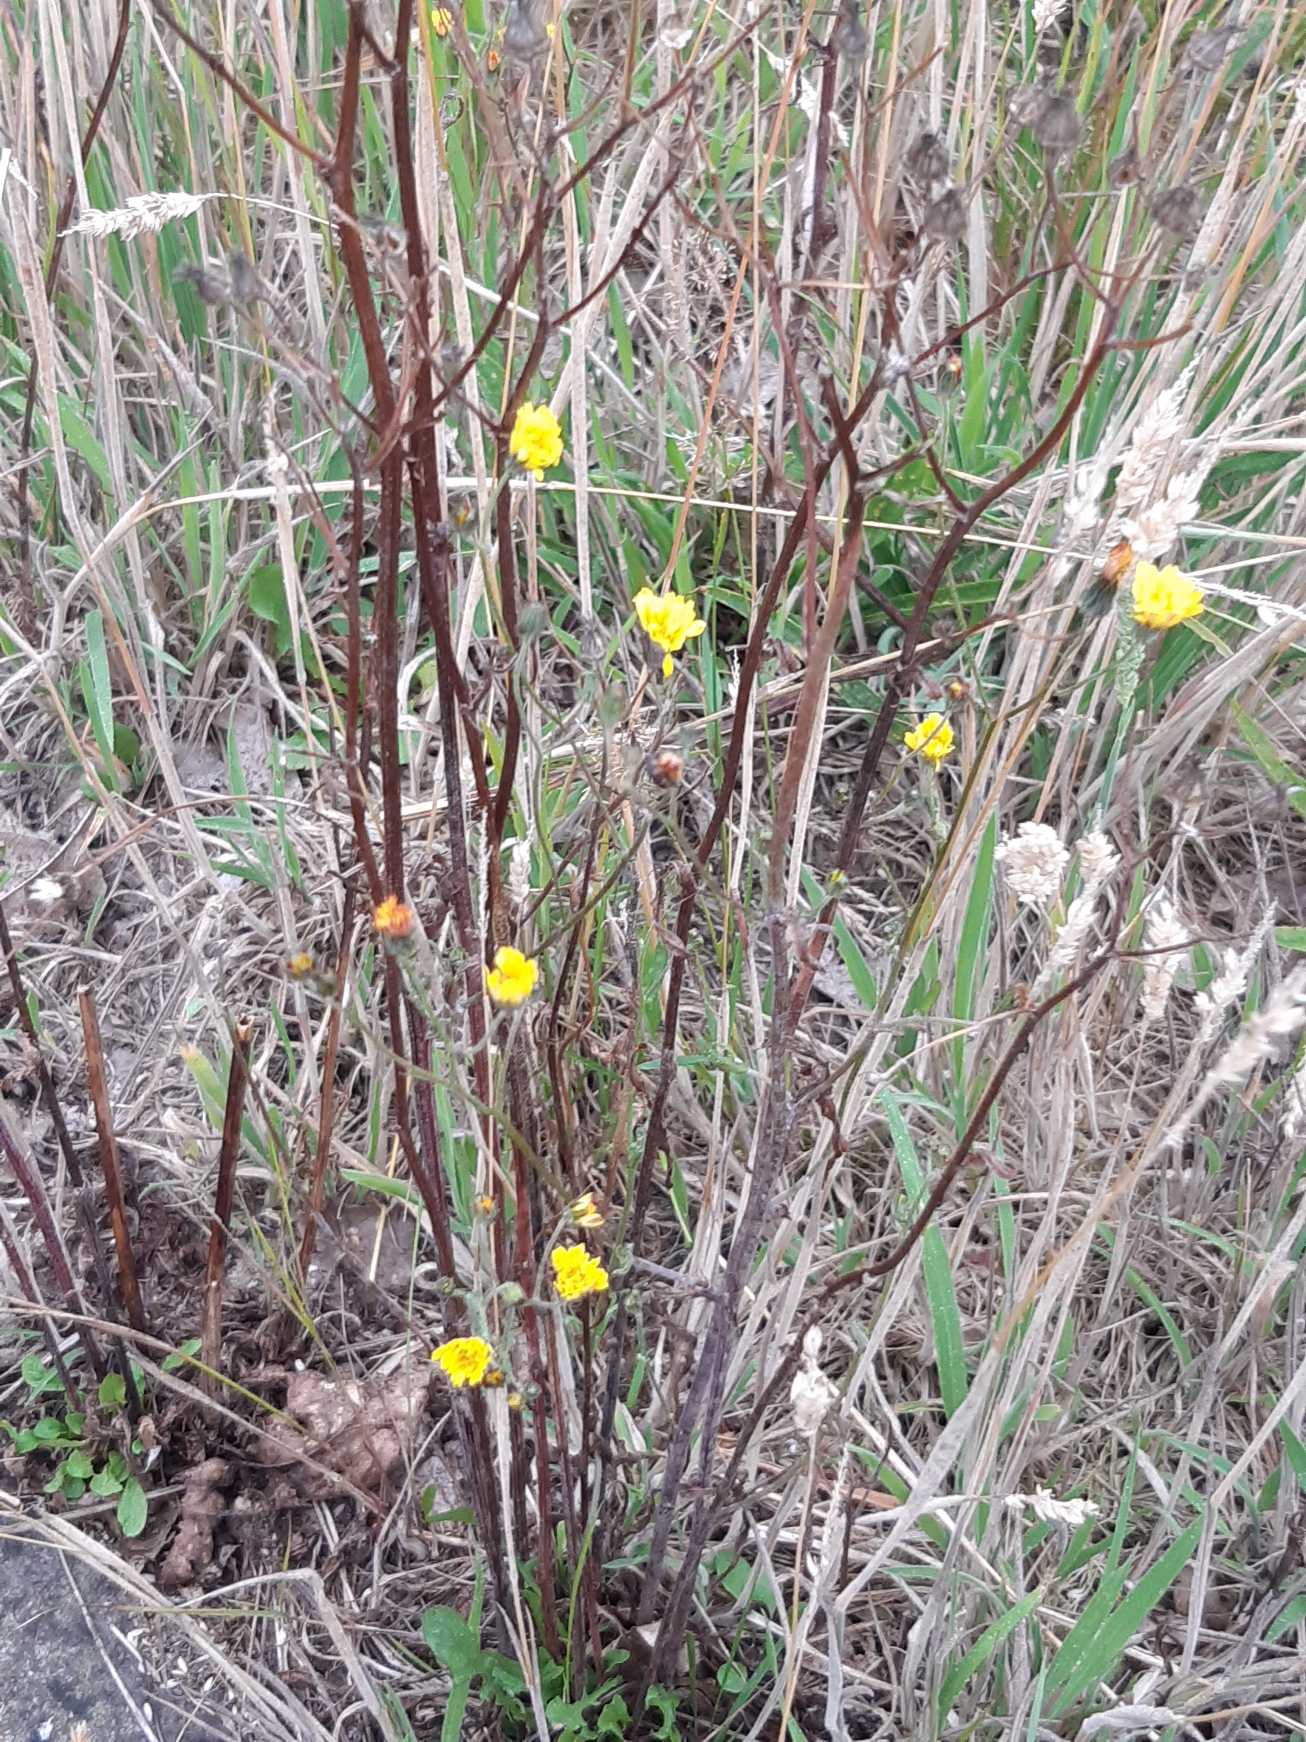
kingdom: Plantae
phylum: Tracheophyta
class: Magnoliopsida
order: Asterales
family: Asteraceae
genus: Crepis
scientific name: Crepis capillaris
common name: Grøn høgeskæg
